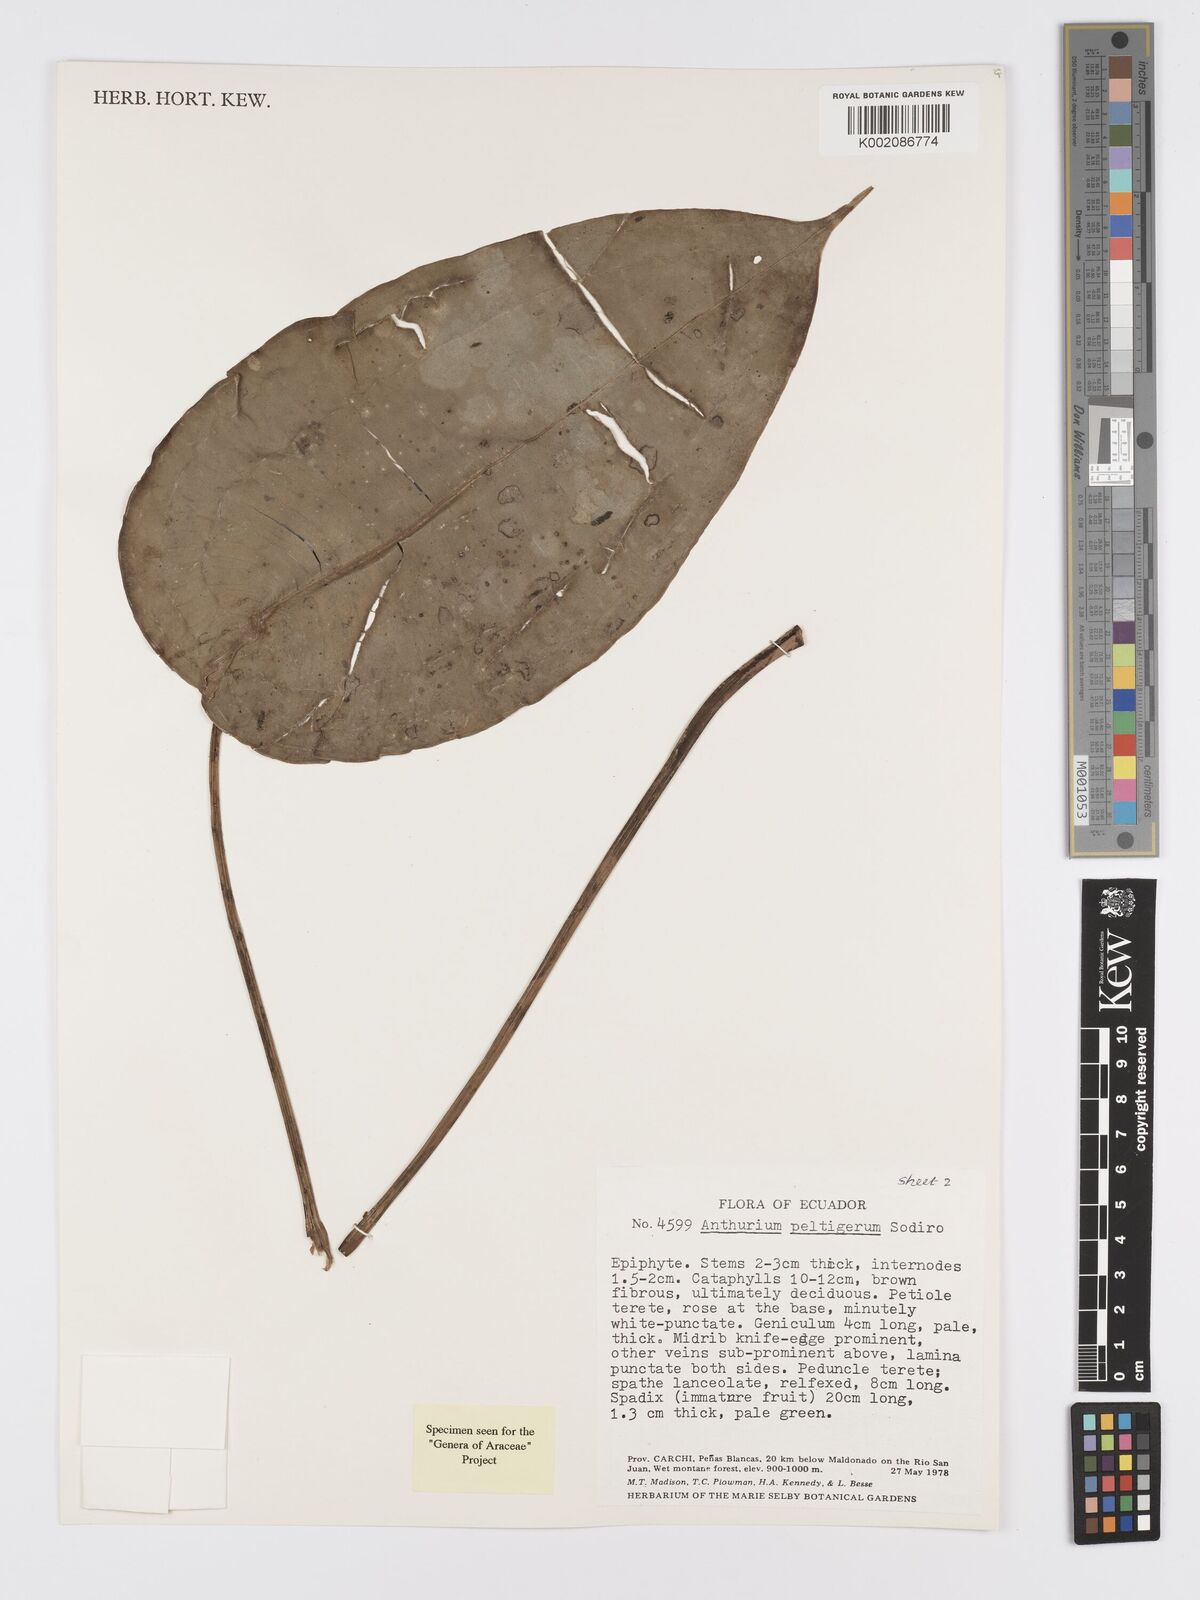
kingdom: Plantae
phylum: Tracheophyta
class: Liliopsida
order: Alismatales
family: Araceae
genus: Anthurium
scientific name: Anthurium peltigerum
